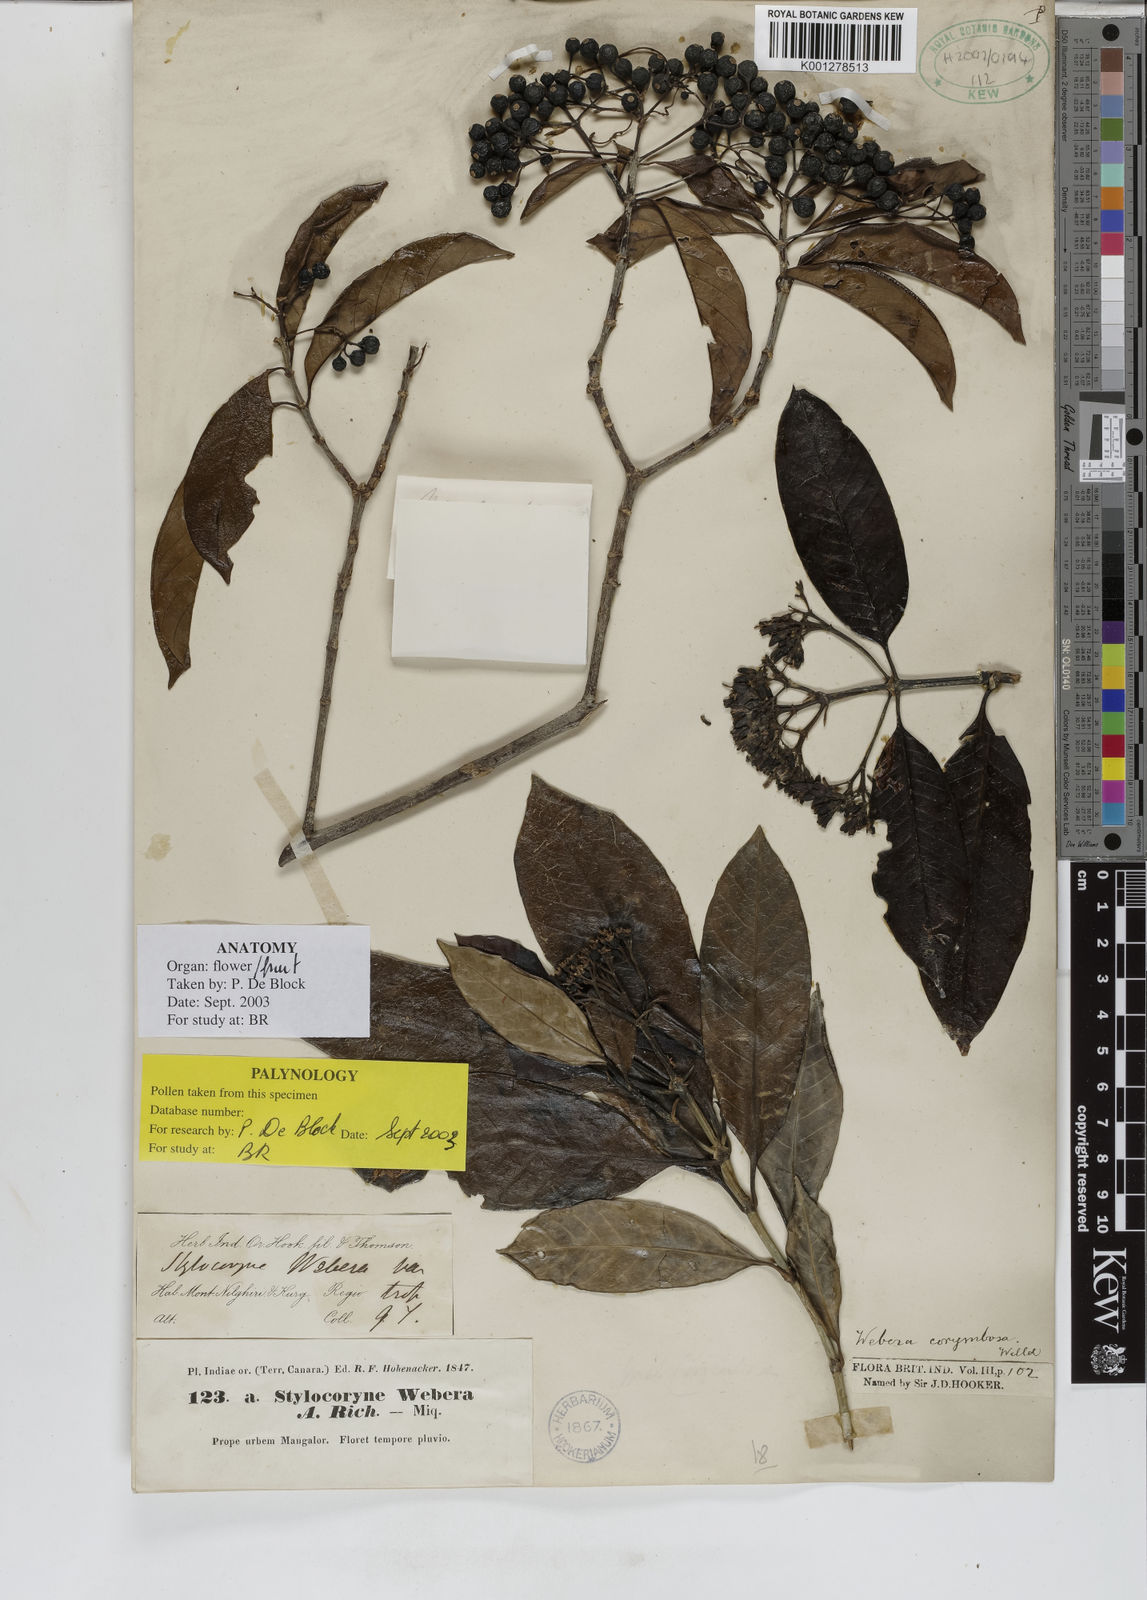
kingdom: Plantae
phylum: Tracheophyta
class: Magnoliopsida
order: Gentianales
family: Rubiaceae
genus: Tarenna
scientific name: Tarenna asiatica
